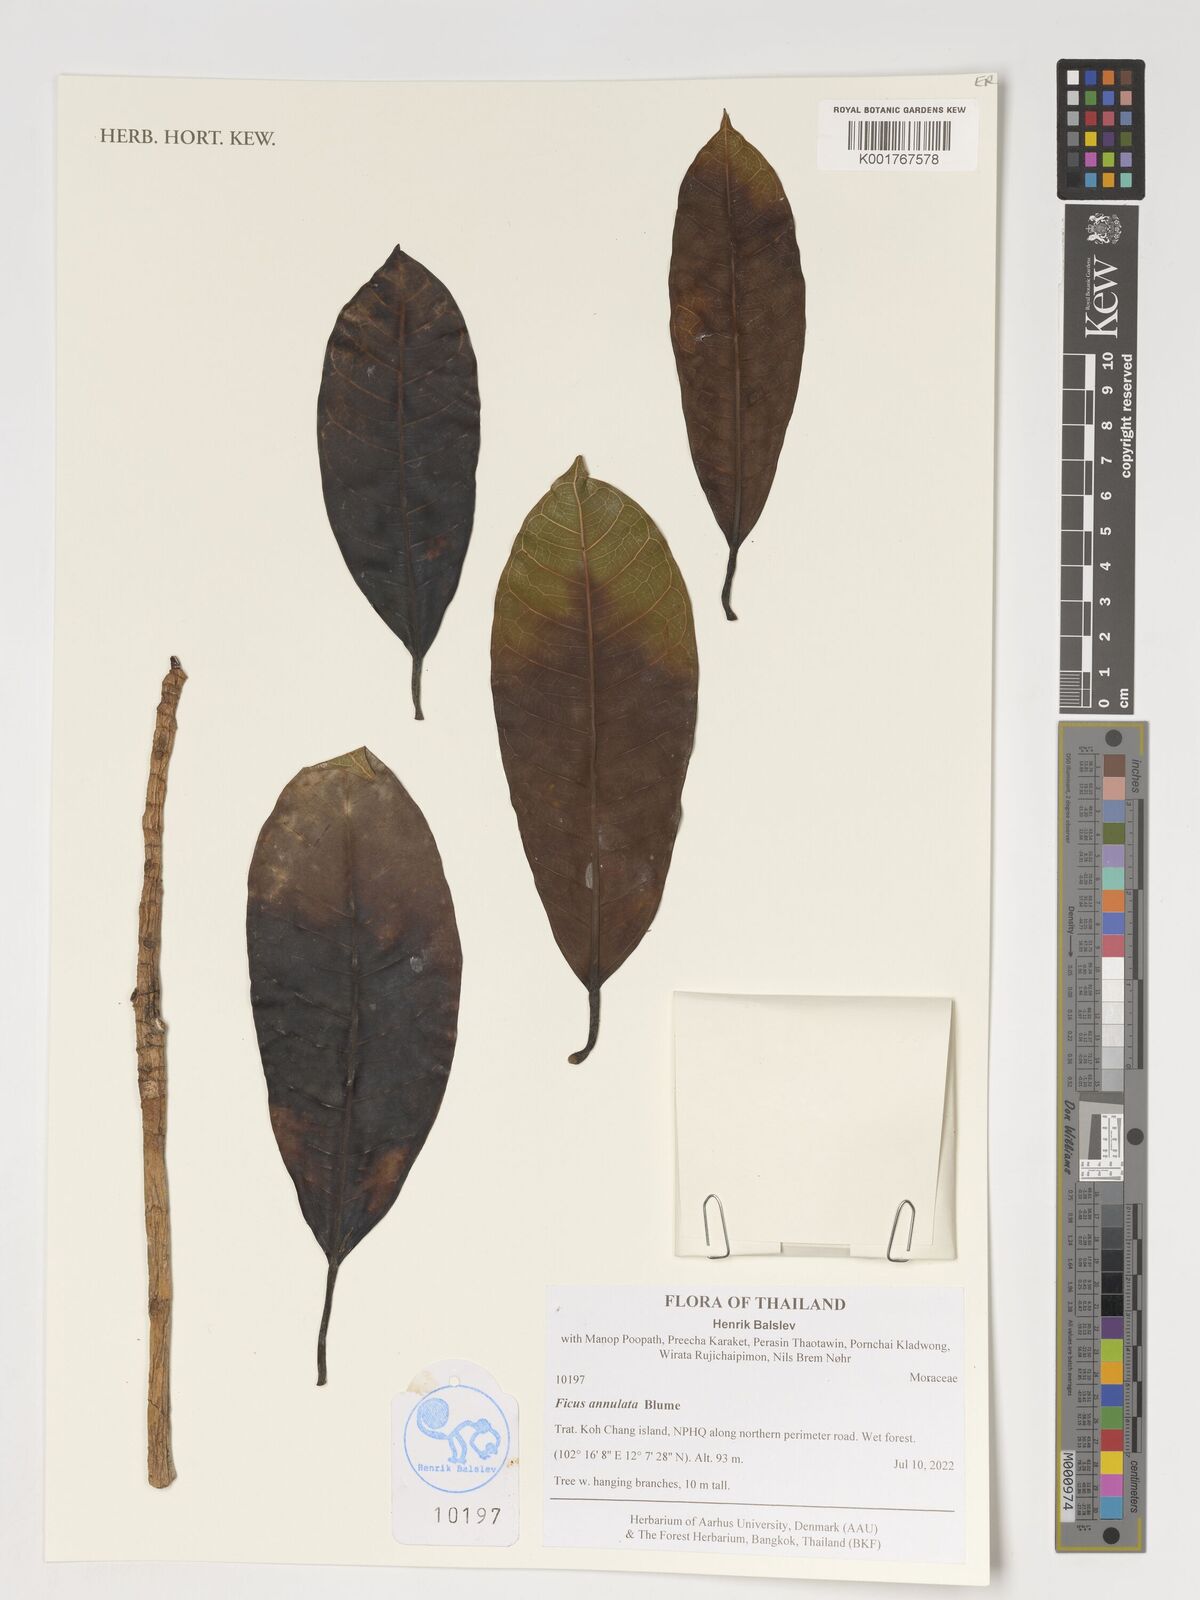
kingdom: Plantae
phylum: Tracheophyta
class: Magnoliopsida
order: Rosales
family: Moraceae
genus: Ficus
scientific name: Ficus annulata
